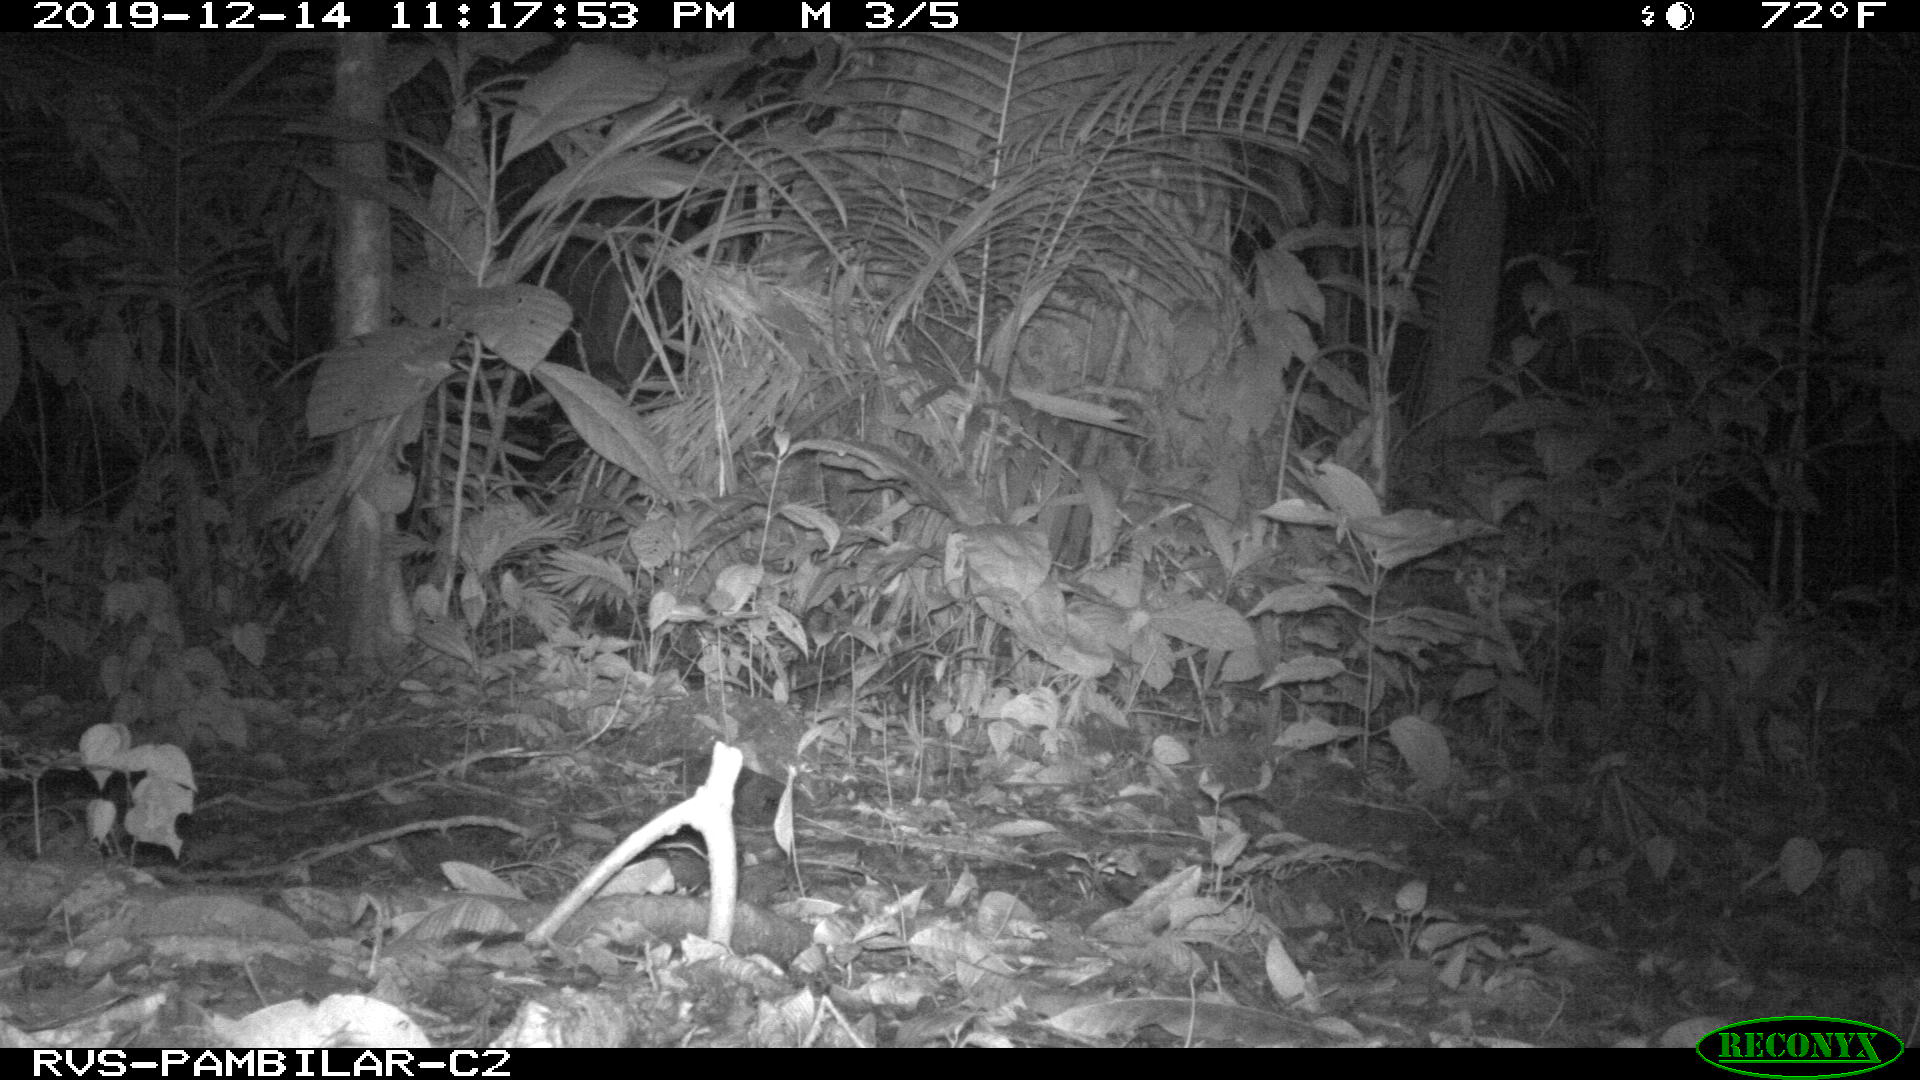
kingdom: Animalia
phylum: Chordata
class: Mammalia
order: Carnivora
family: Felidae
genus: Leopardus
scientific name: Leopardus pardalis
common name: Ocelot
